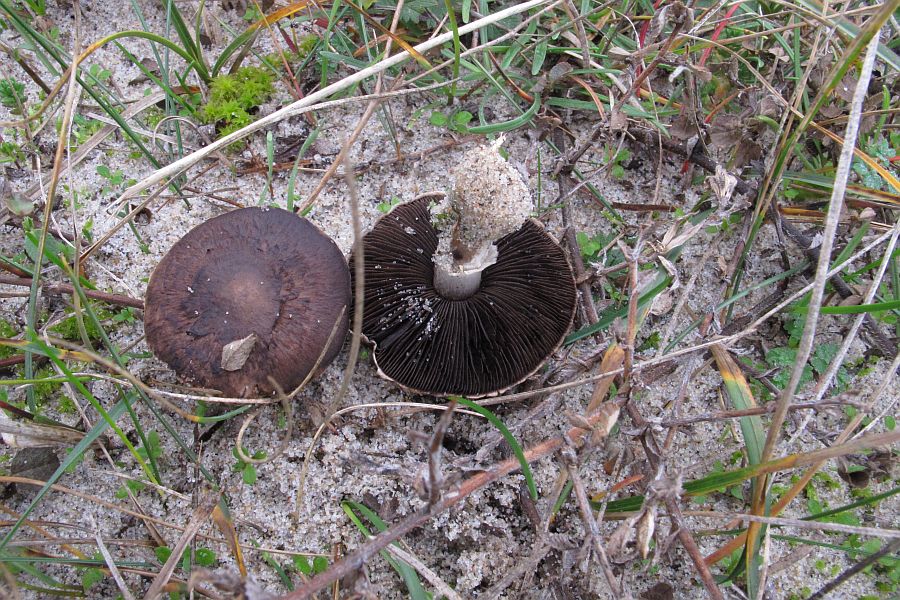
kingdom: Fungi
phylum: Basidiomycota
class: Agaricomycetes
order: Agaricales
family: Agaricaceae
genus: Agaricus
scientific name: Agaricus cupreobrunneus
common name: kobberbrun champignon
